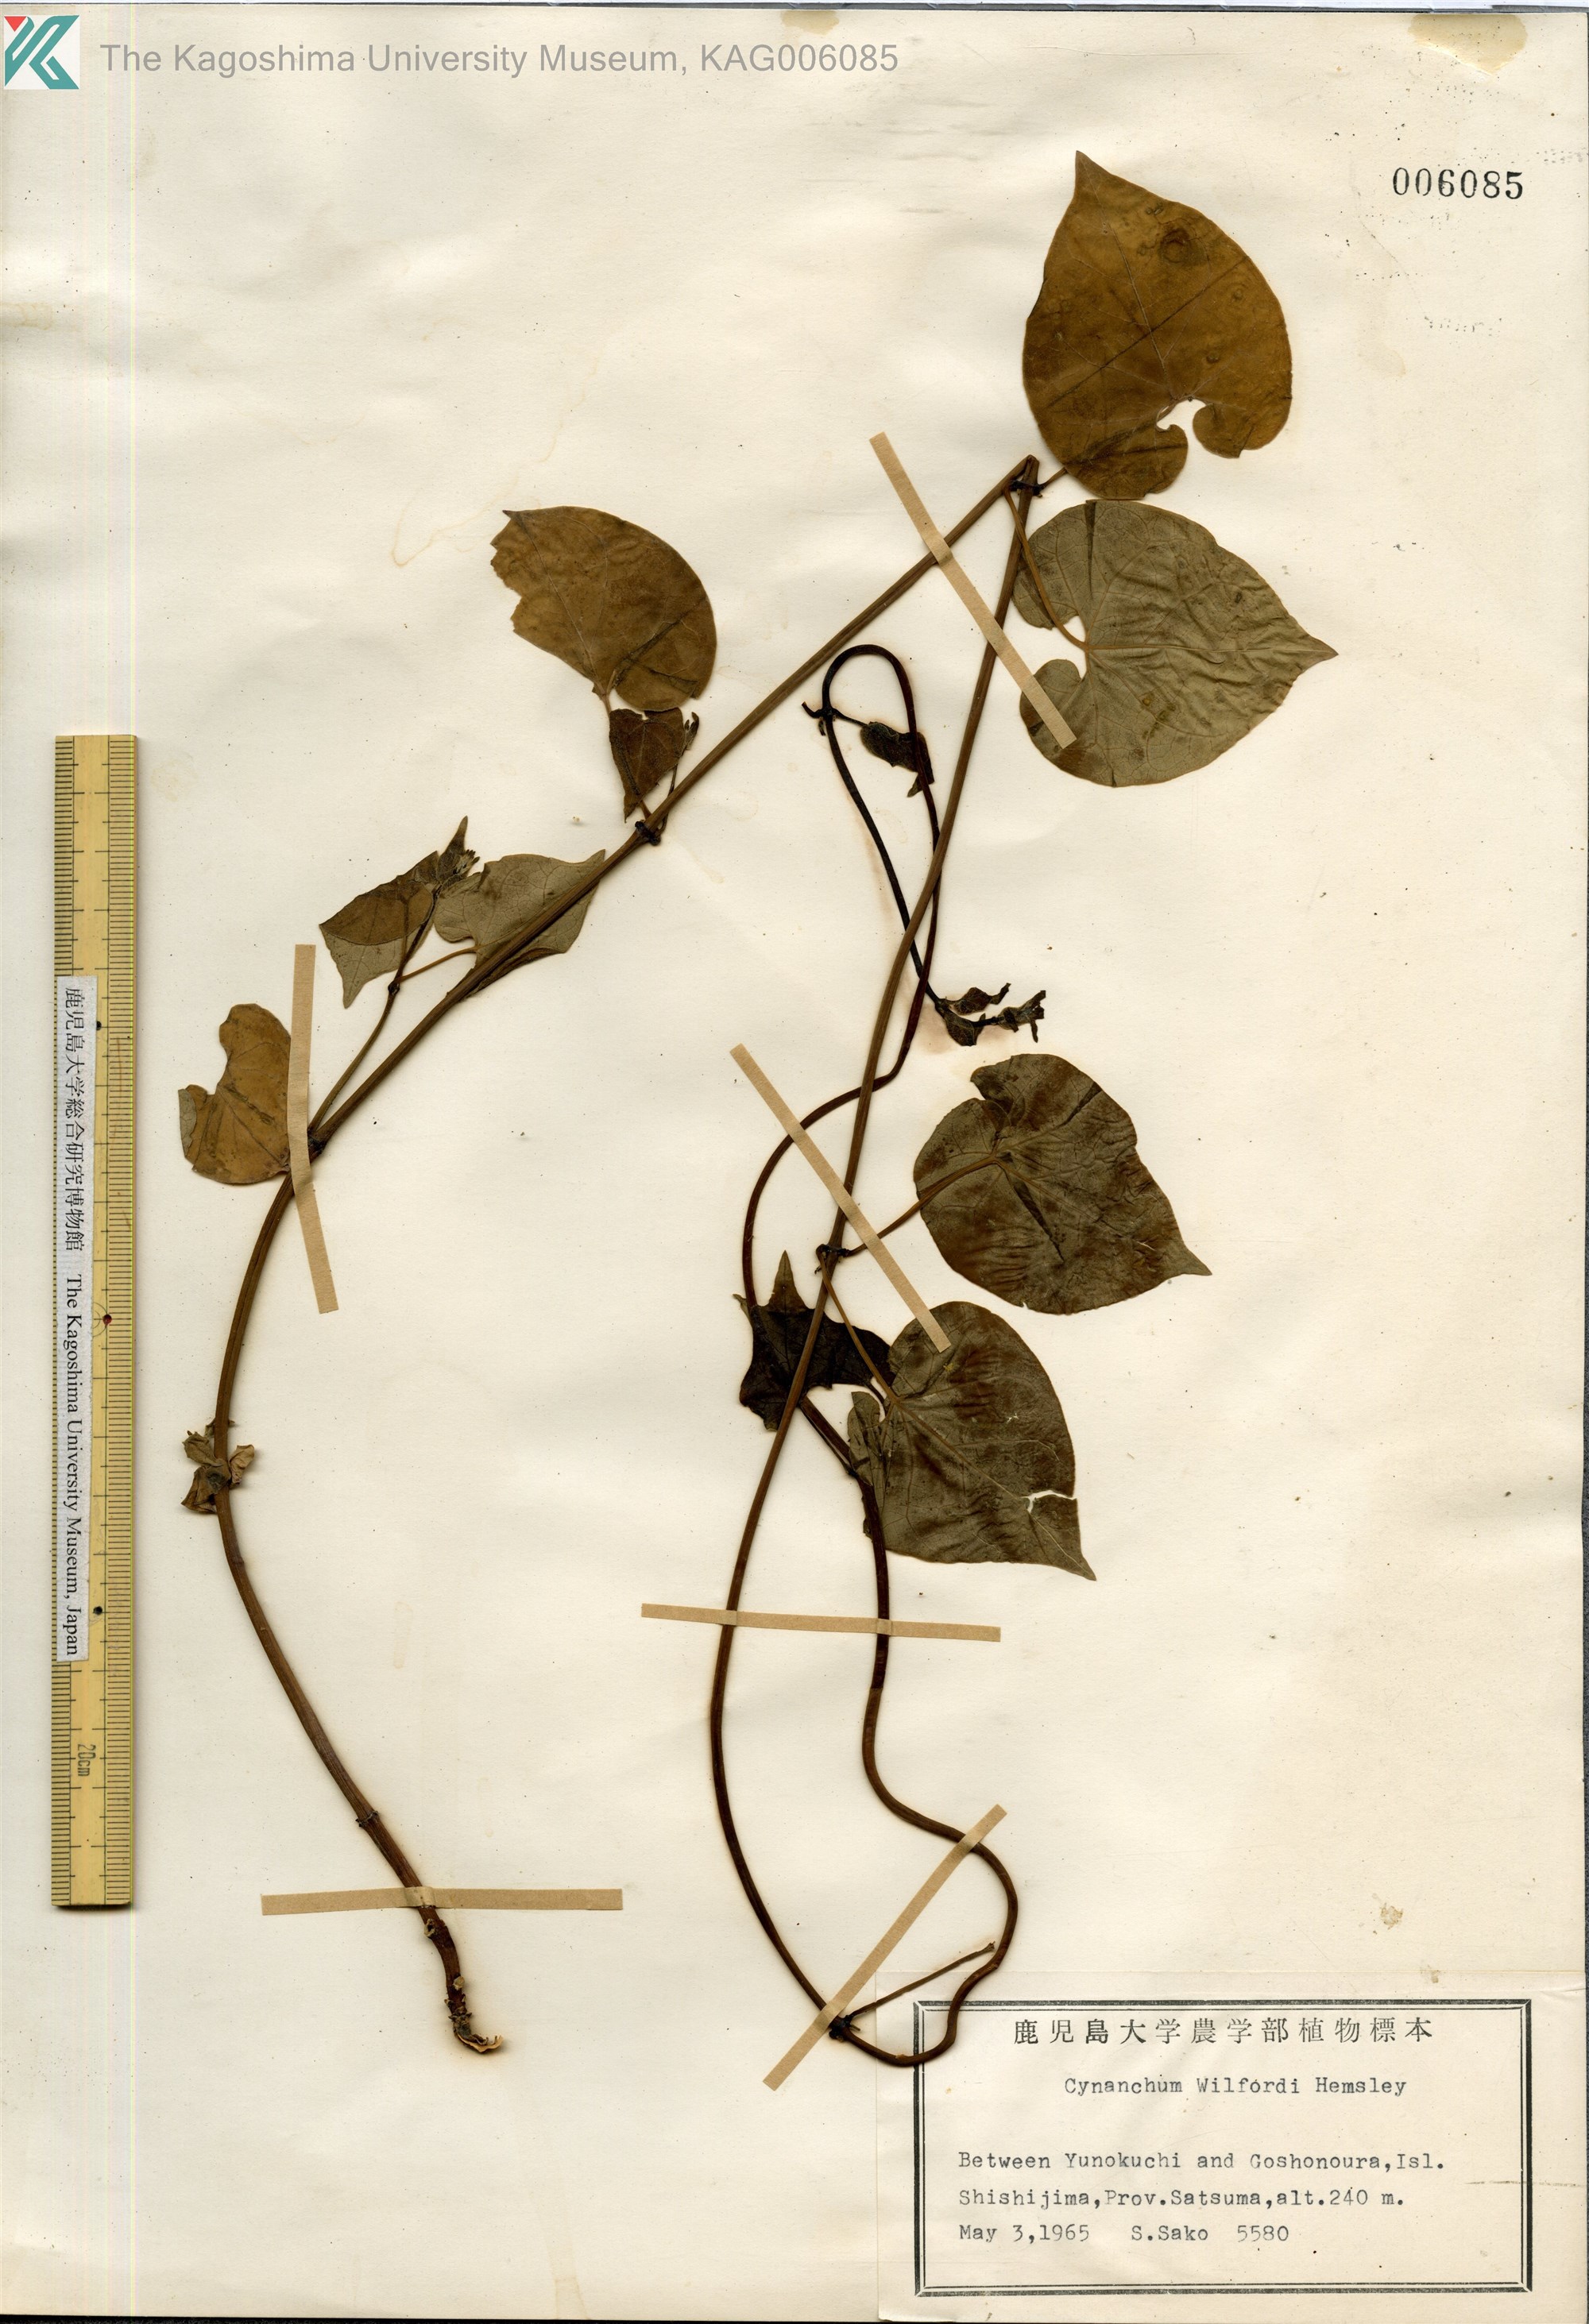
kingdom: Plantae
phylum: Tracheophyta
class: Magnoliopsida
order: Gentianales
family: Apocynaceae
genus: Cynanchum
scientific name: Cynanchum wilfordii
